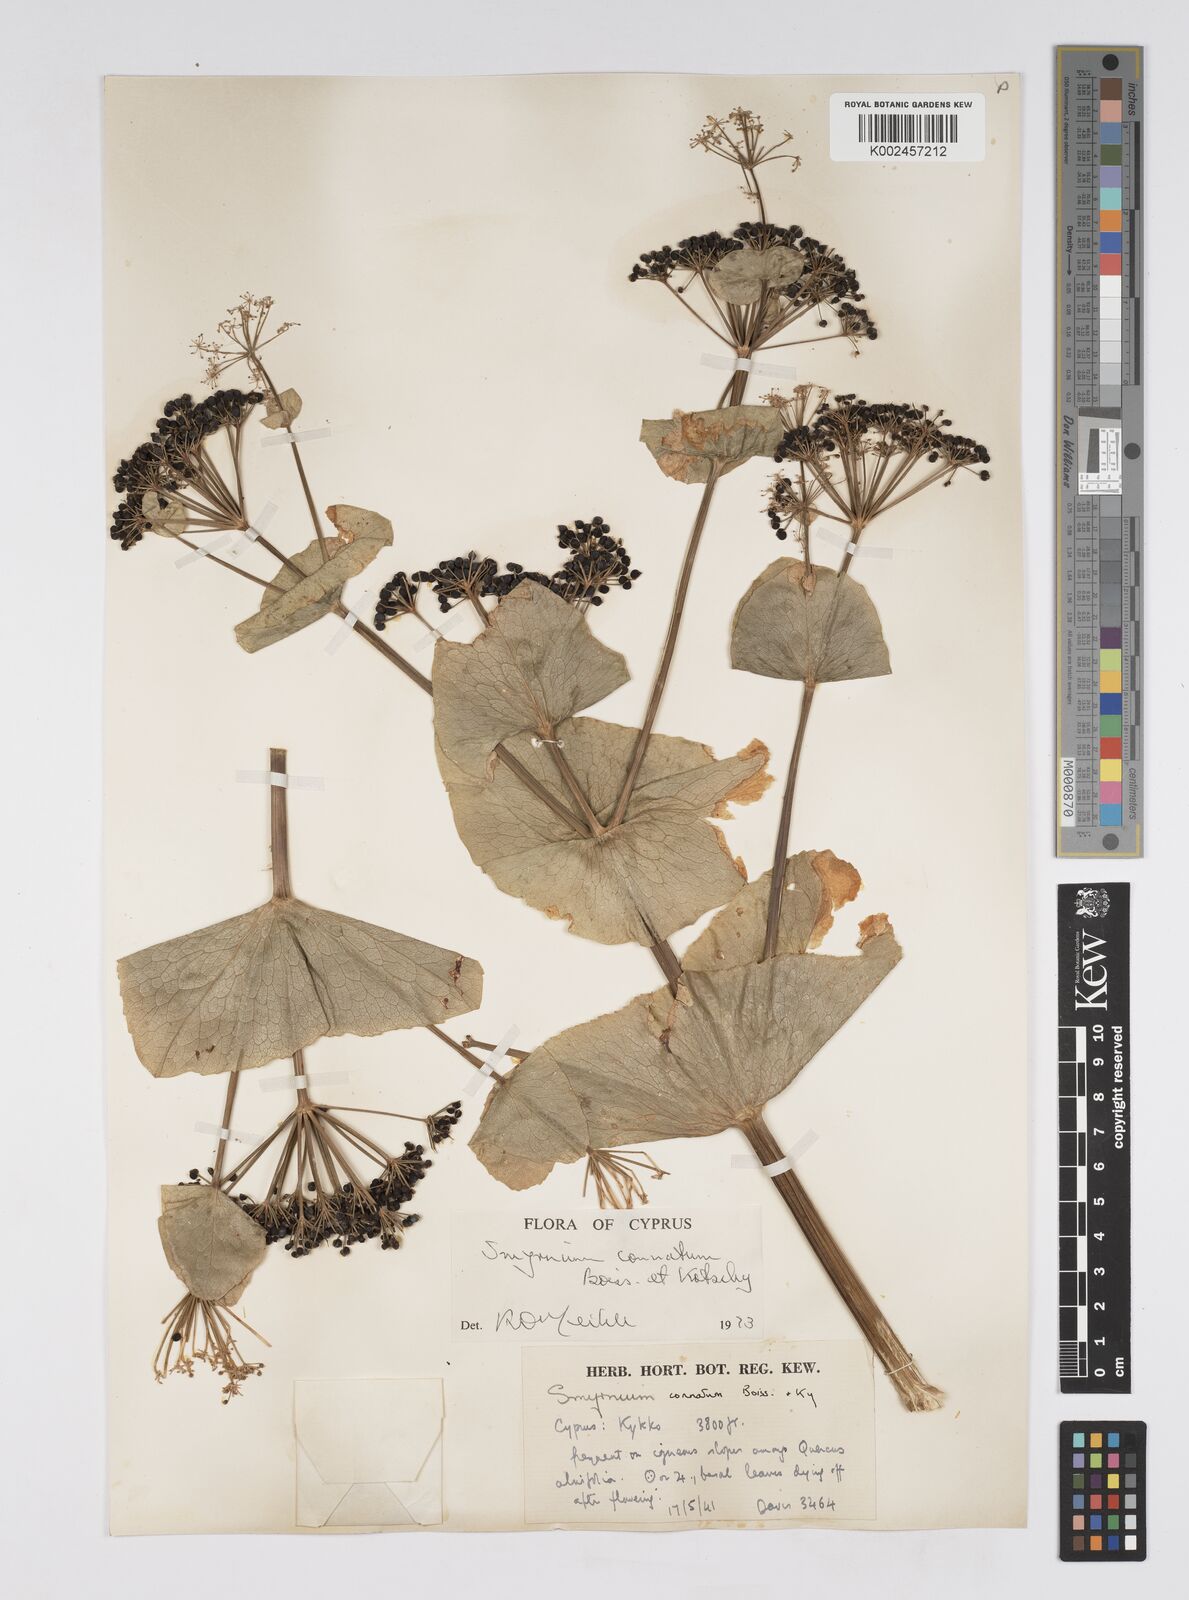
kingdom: Plantae
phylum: Tracheophyta
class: Magnoliopsida
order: Apiales
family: Apiaceae
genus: Smyrnium
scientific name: Smyrnium connatum
